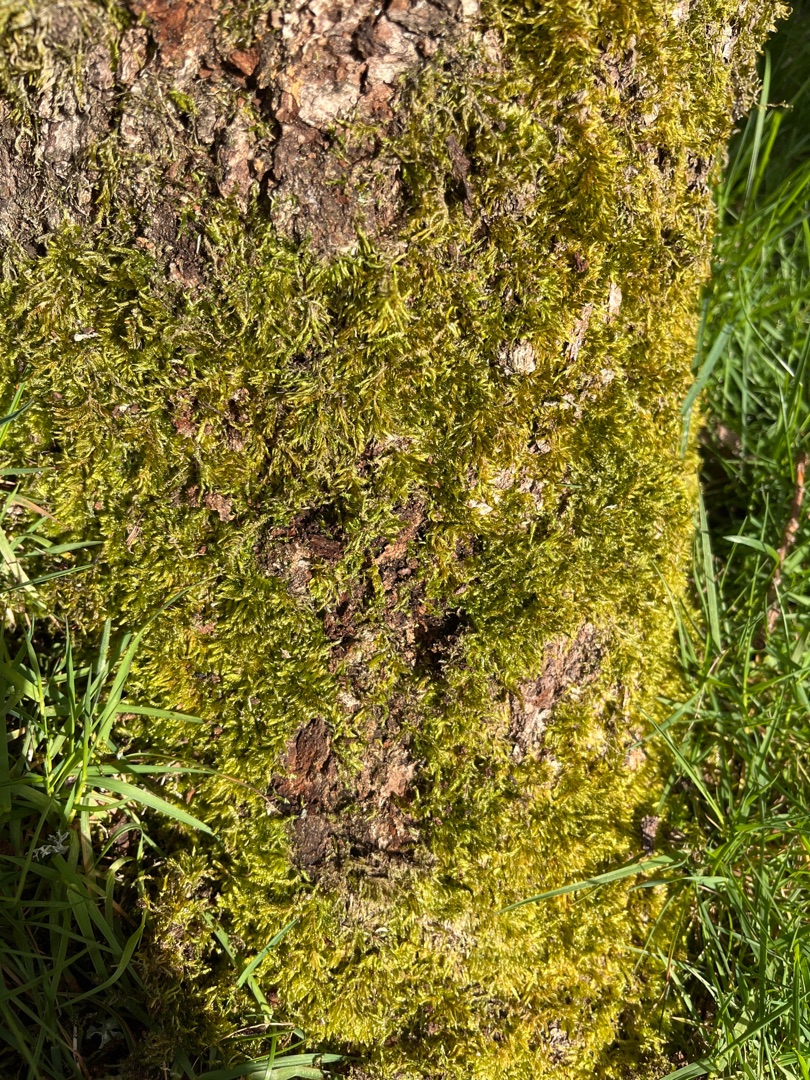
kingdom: Plantae
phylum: Bryophyta
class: Bryopsida
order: Hypnales
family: Hypnaceae
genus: Hypnum
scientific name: Hypnum cupressiforme
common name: Almindelig cypresmos
